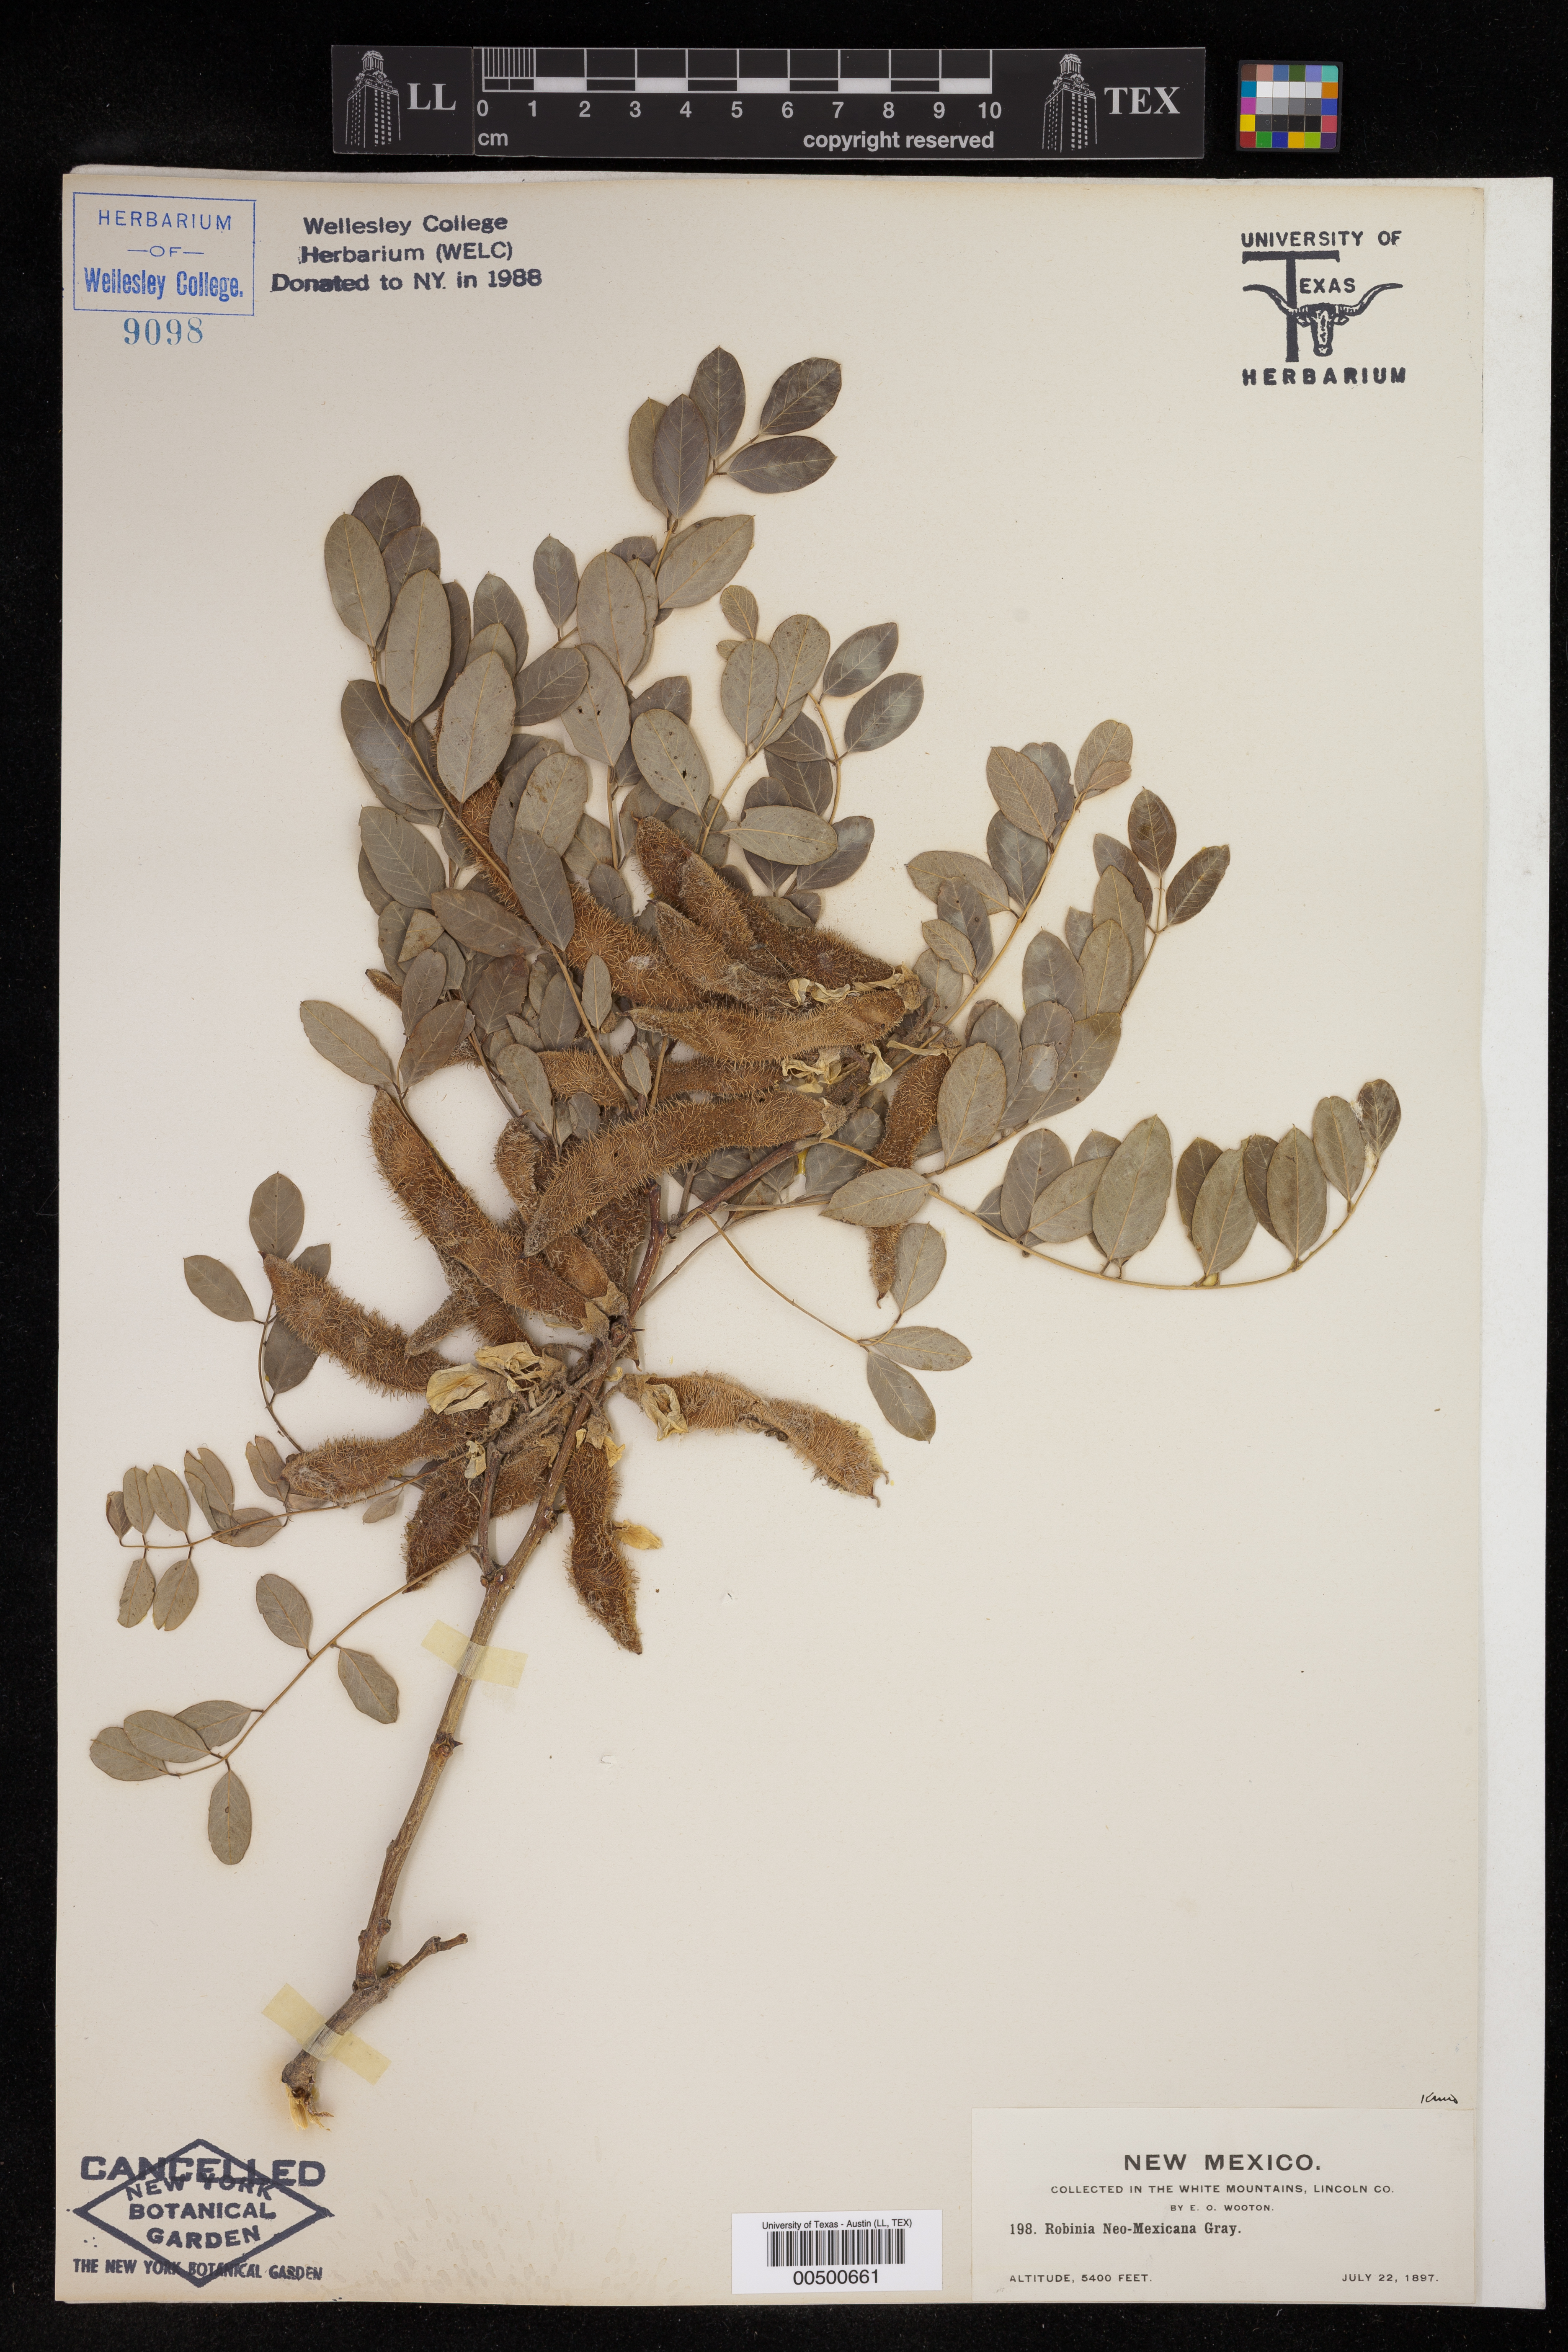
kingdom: Plantae
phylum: Tracheophyta
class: Magnoliopsida
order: Fabales
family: Fabaceae
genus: Robinia
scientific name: Robinia neomexicana
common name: New mexico locust
